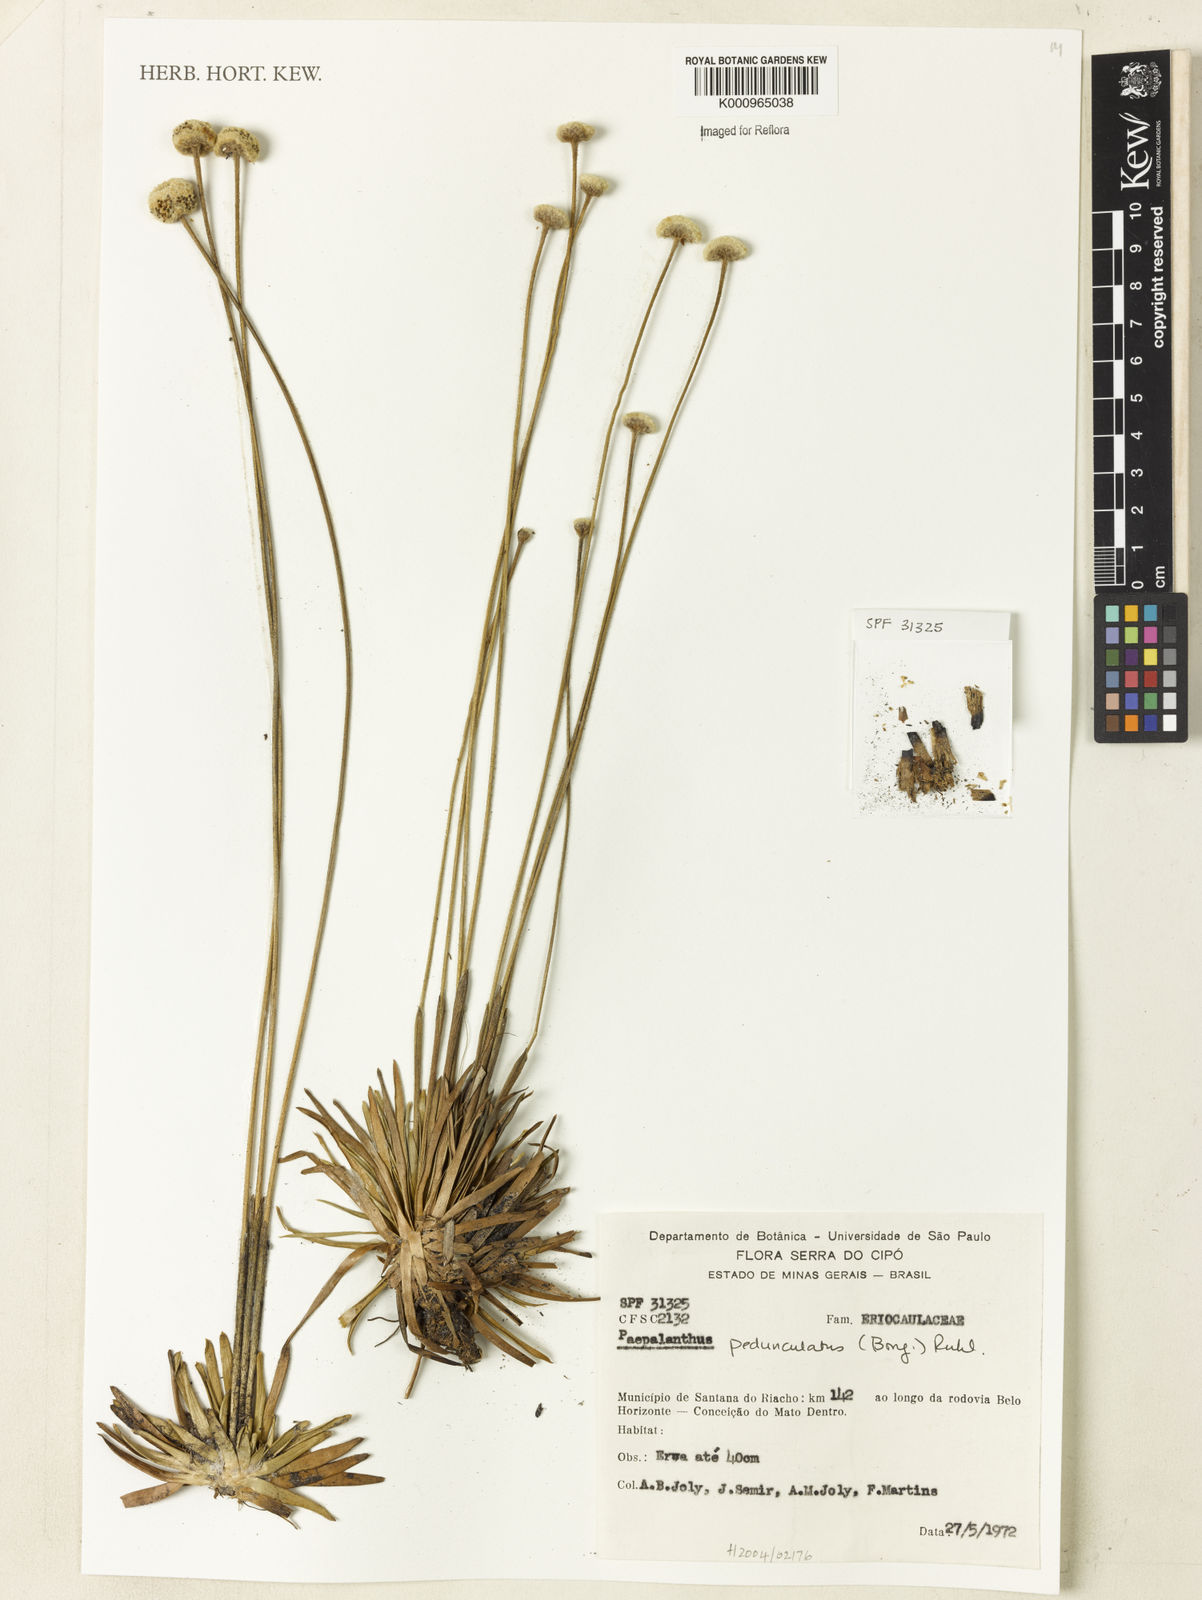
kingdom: Plantae
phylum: Tracheophyta
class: Liliopsida
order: Poales
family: Eriocaulaceae
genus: Paepalanthus
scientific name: Paepalanthus
